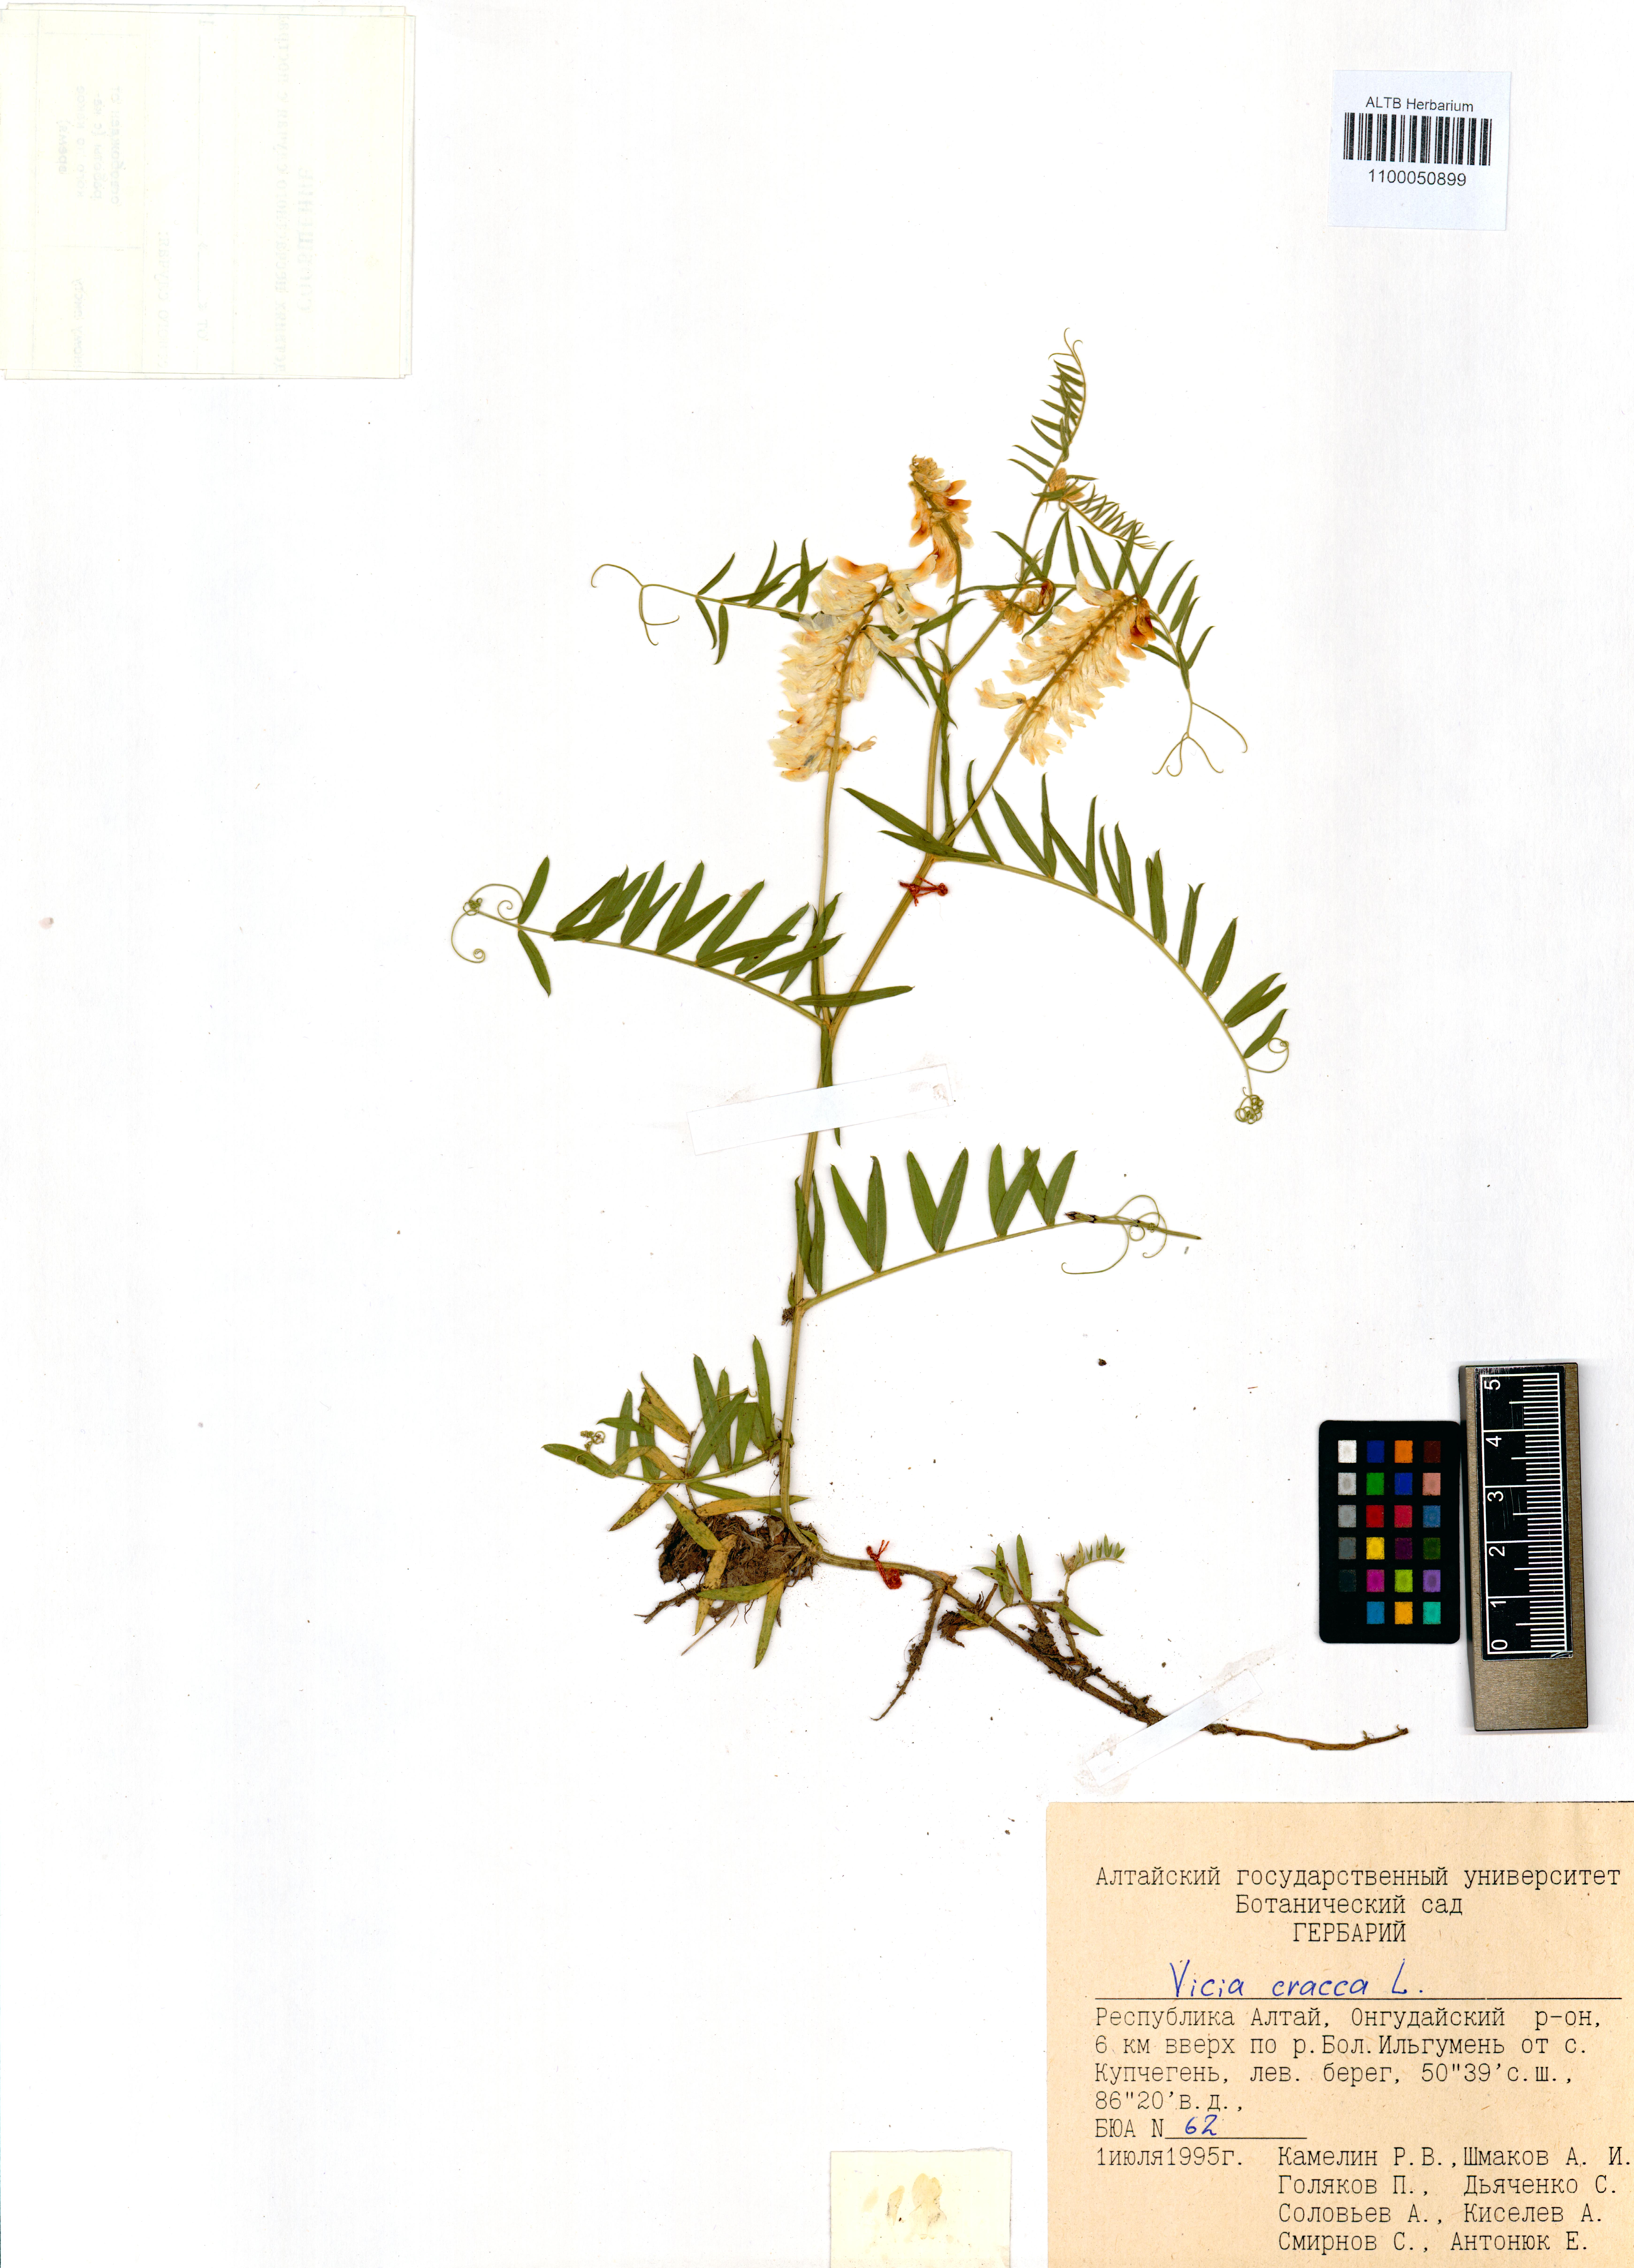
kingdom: Plantae
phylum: Tracheophyta
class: Magnoliopsida
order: Fabales
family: Fabaceae
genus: Vicia
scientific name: Vicia cracca
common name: Bird vetch
